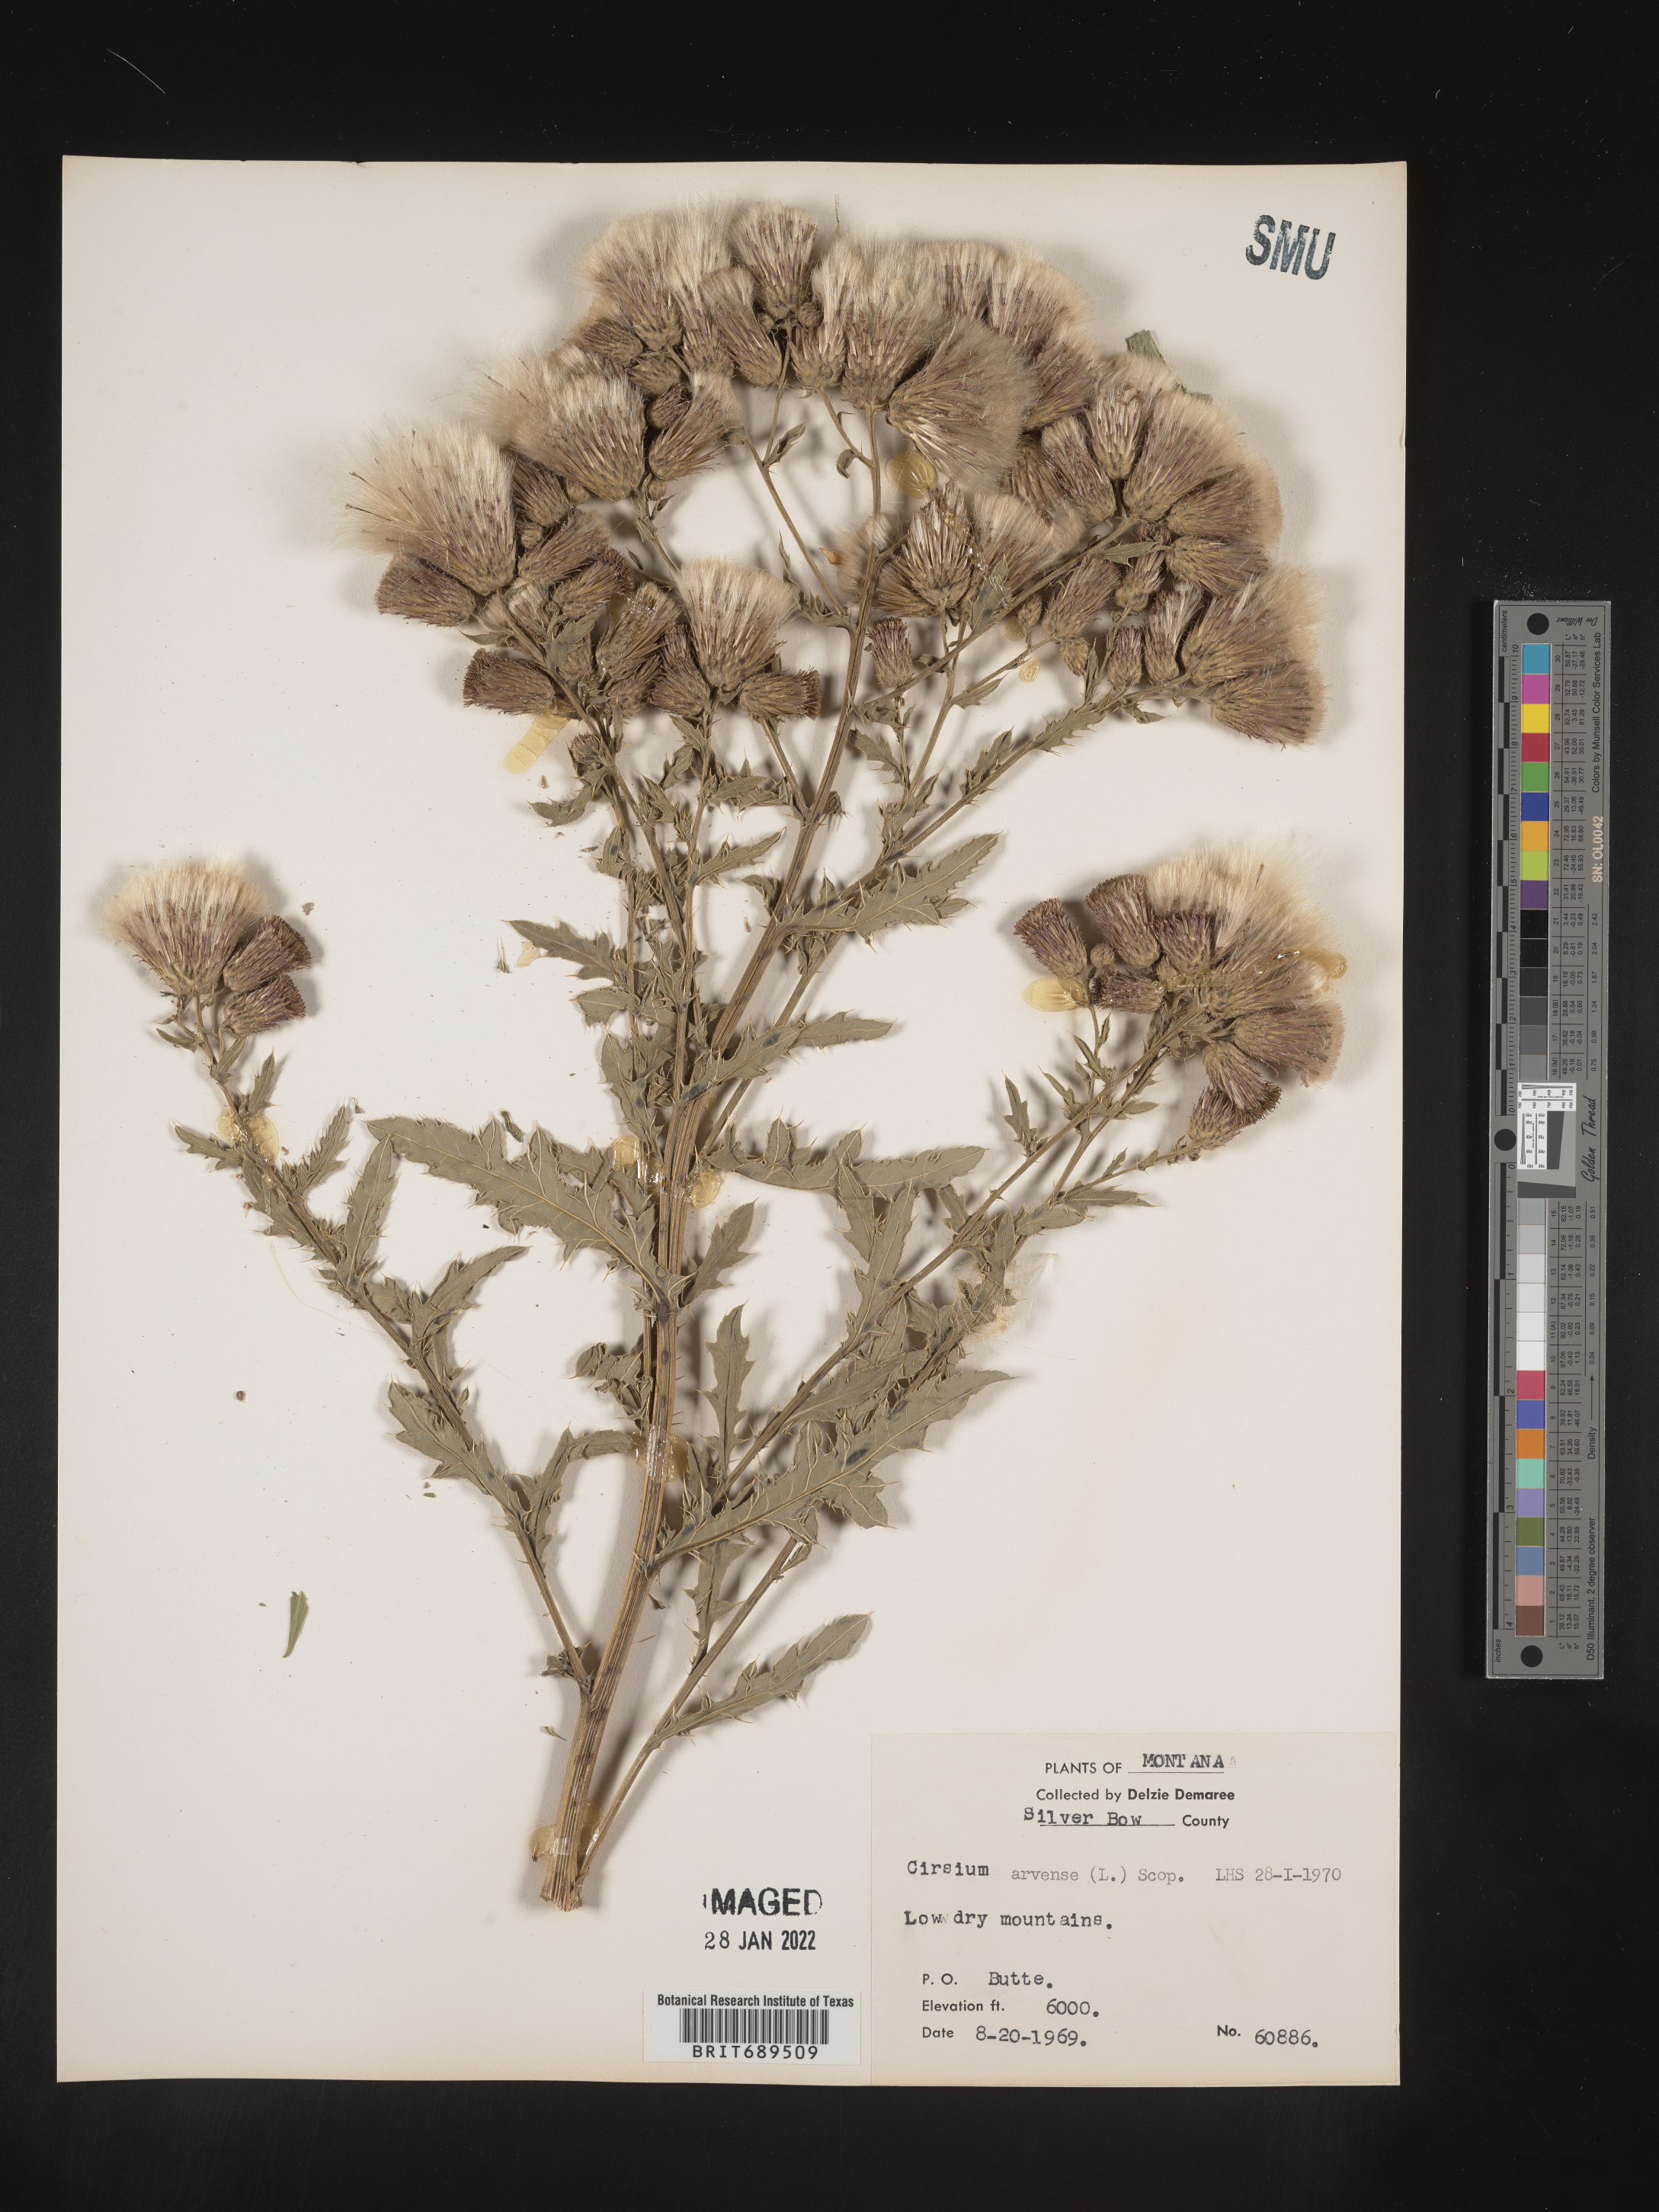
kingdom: Plantae
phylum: Tracheophyta
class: Magnoliopsida
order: Asterales
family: Asteraceae
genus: Cirsium
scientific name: Cirsium arvense
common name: Creeping thistle
